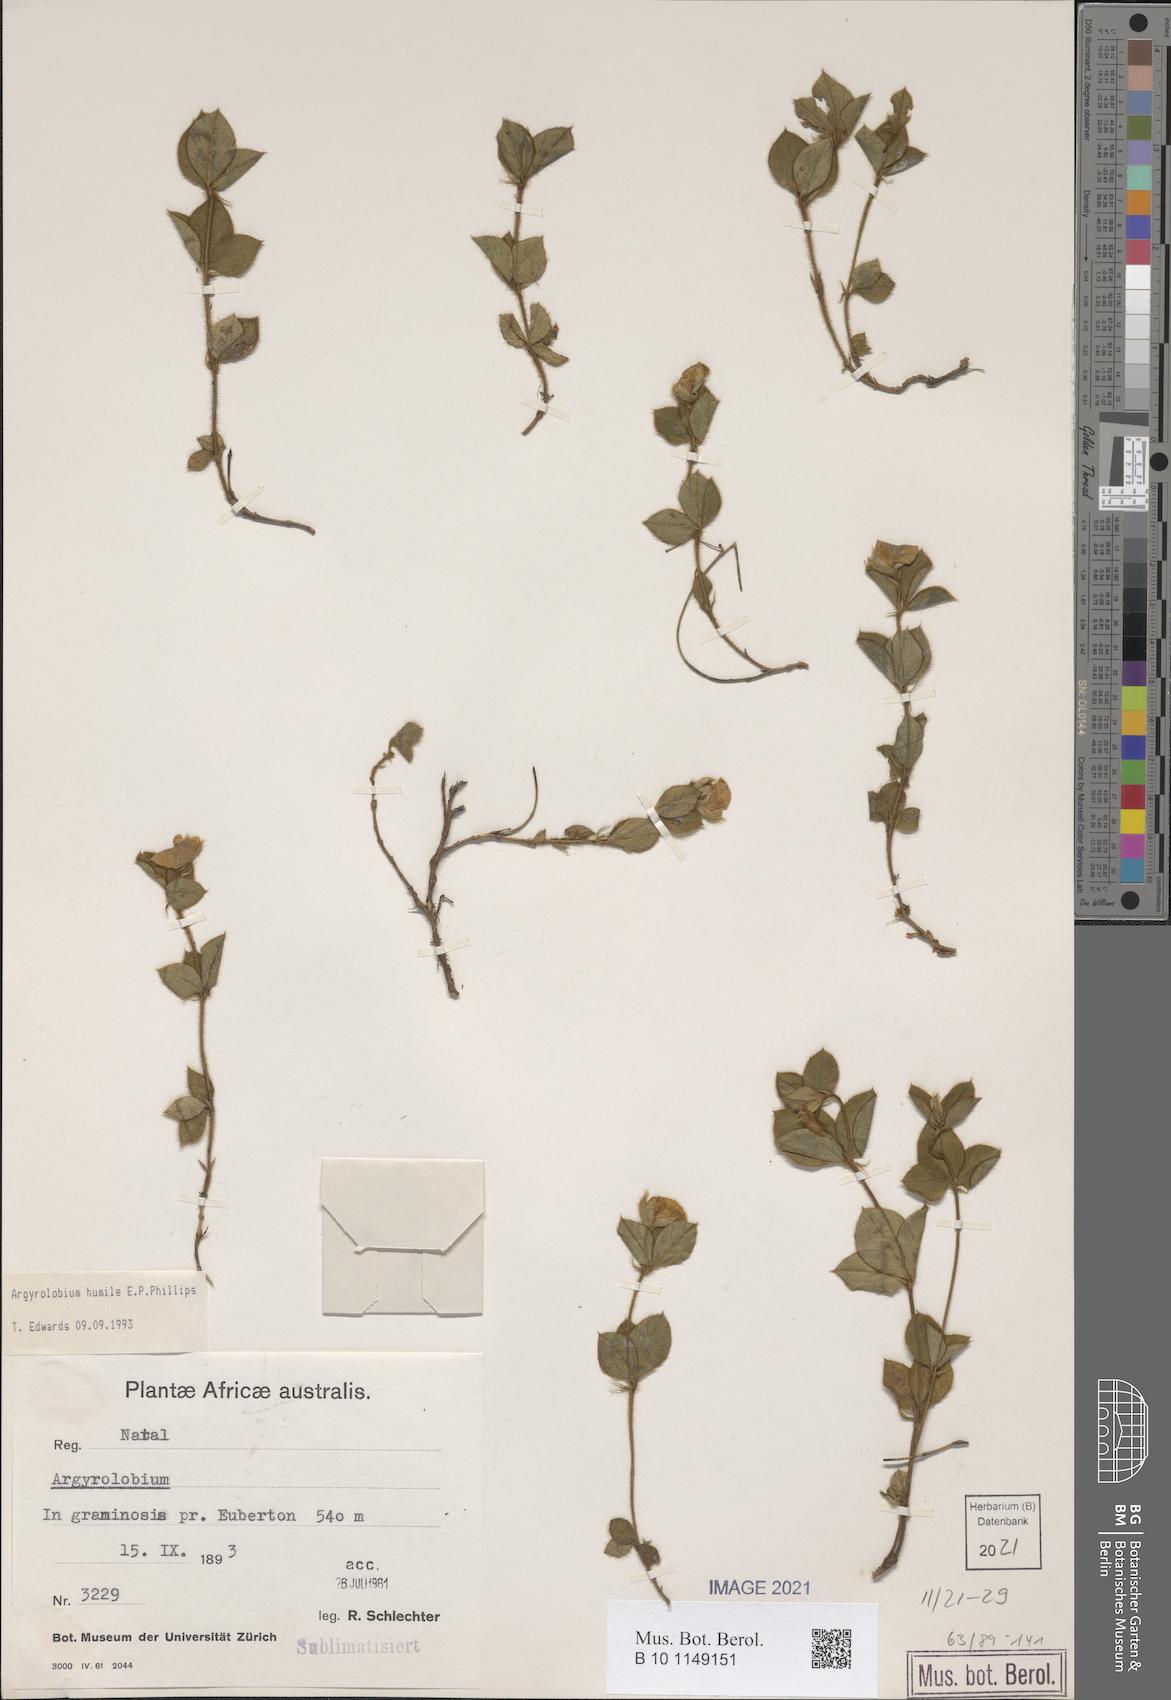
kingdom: Plantae
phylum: Tracheophyta
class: Magnoliopsida
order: Fabales
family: Fabaceae
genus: Argyrolobium
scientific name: Argyrolobium humile
